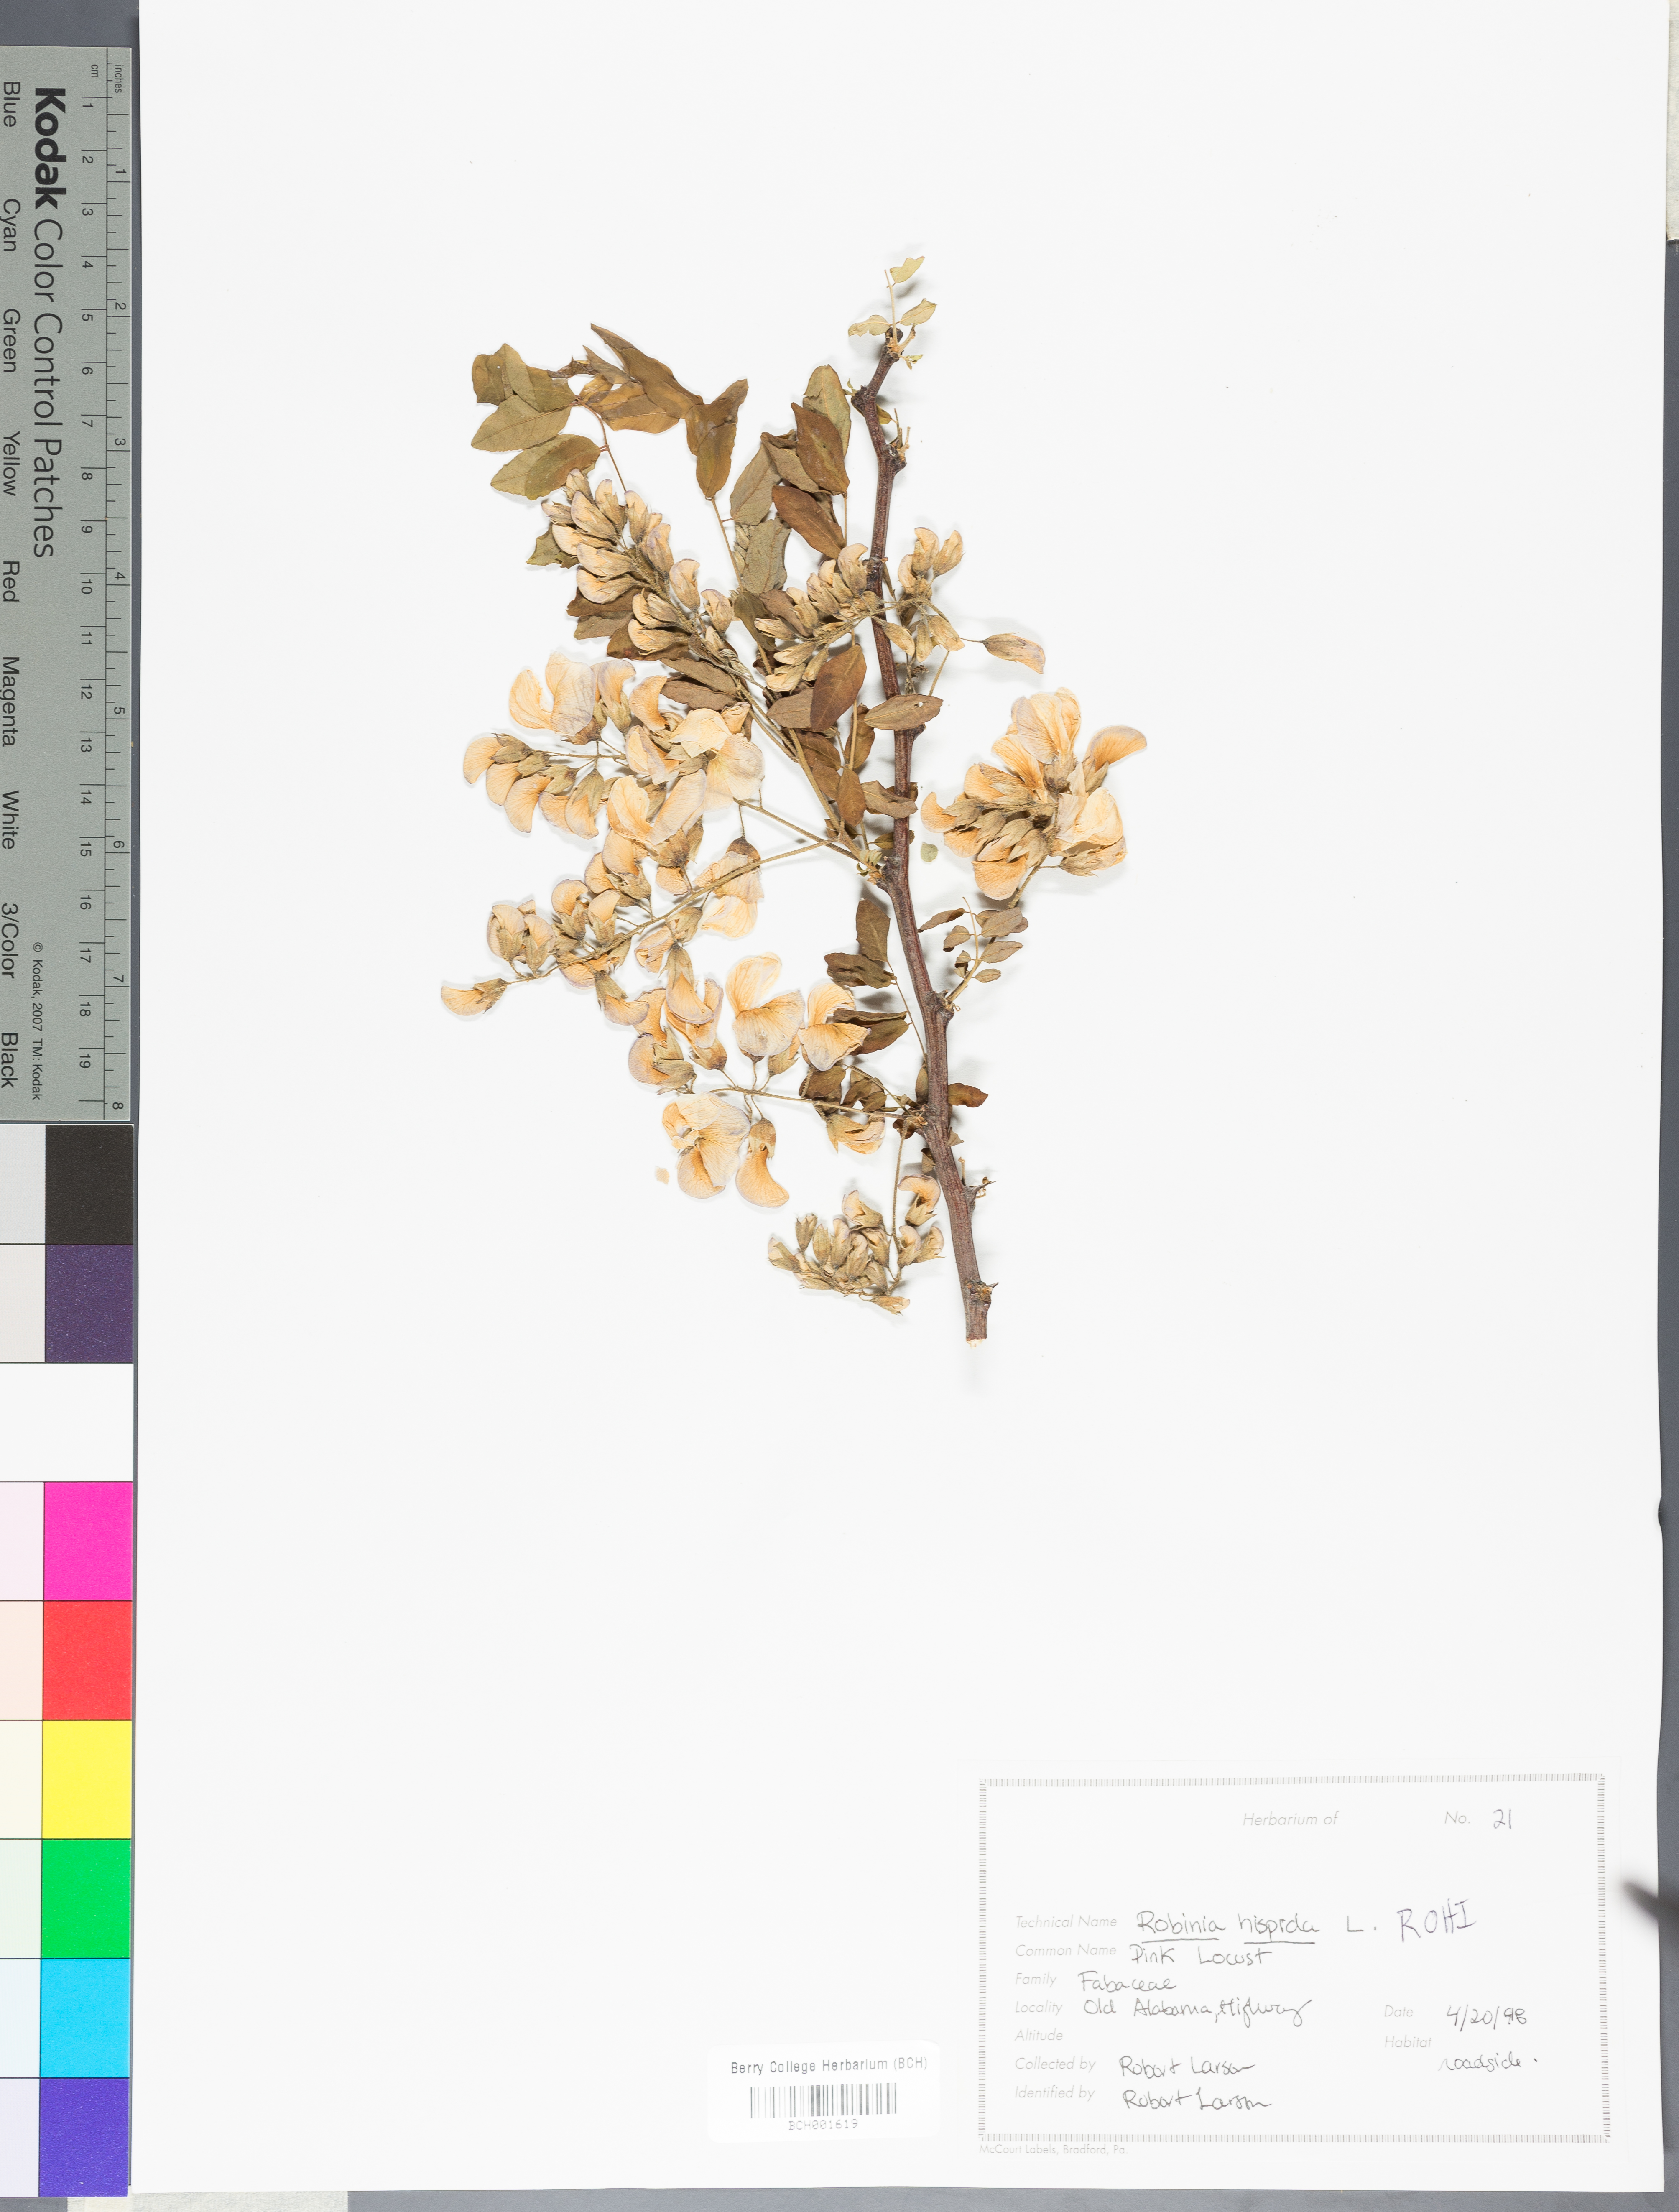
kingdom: Plantae
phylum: Tracheophyta
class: Magnoliopsida
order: Fabales
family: Fabaceae
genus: Robinia
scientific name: Robinia hispida
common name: Bristly locust
